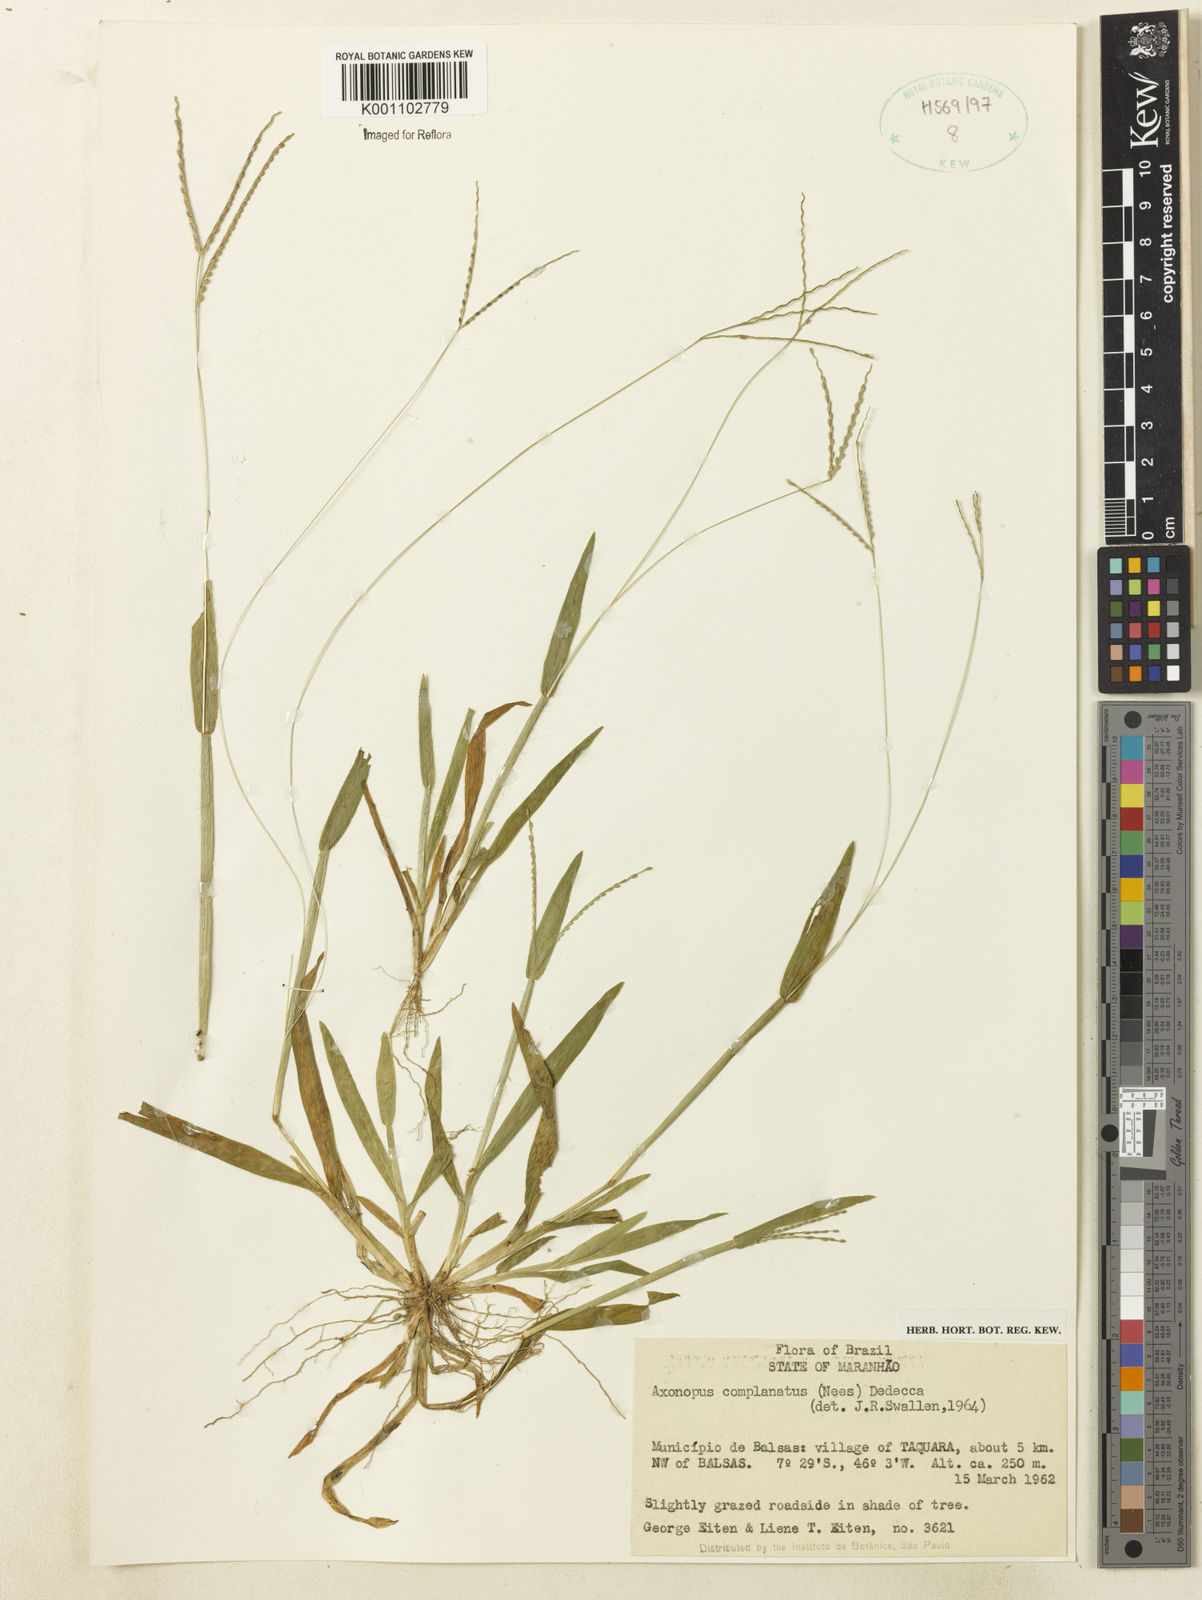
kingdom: Plantae
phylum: Tracheophyta
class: Liliopsida
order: Poales
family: Poaceae
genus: Axonopus
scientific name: Axonopus complanatus
